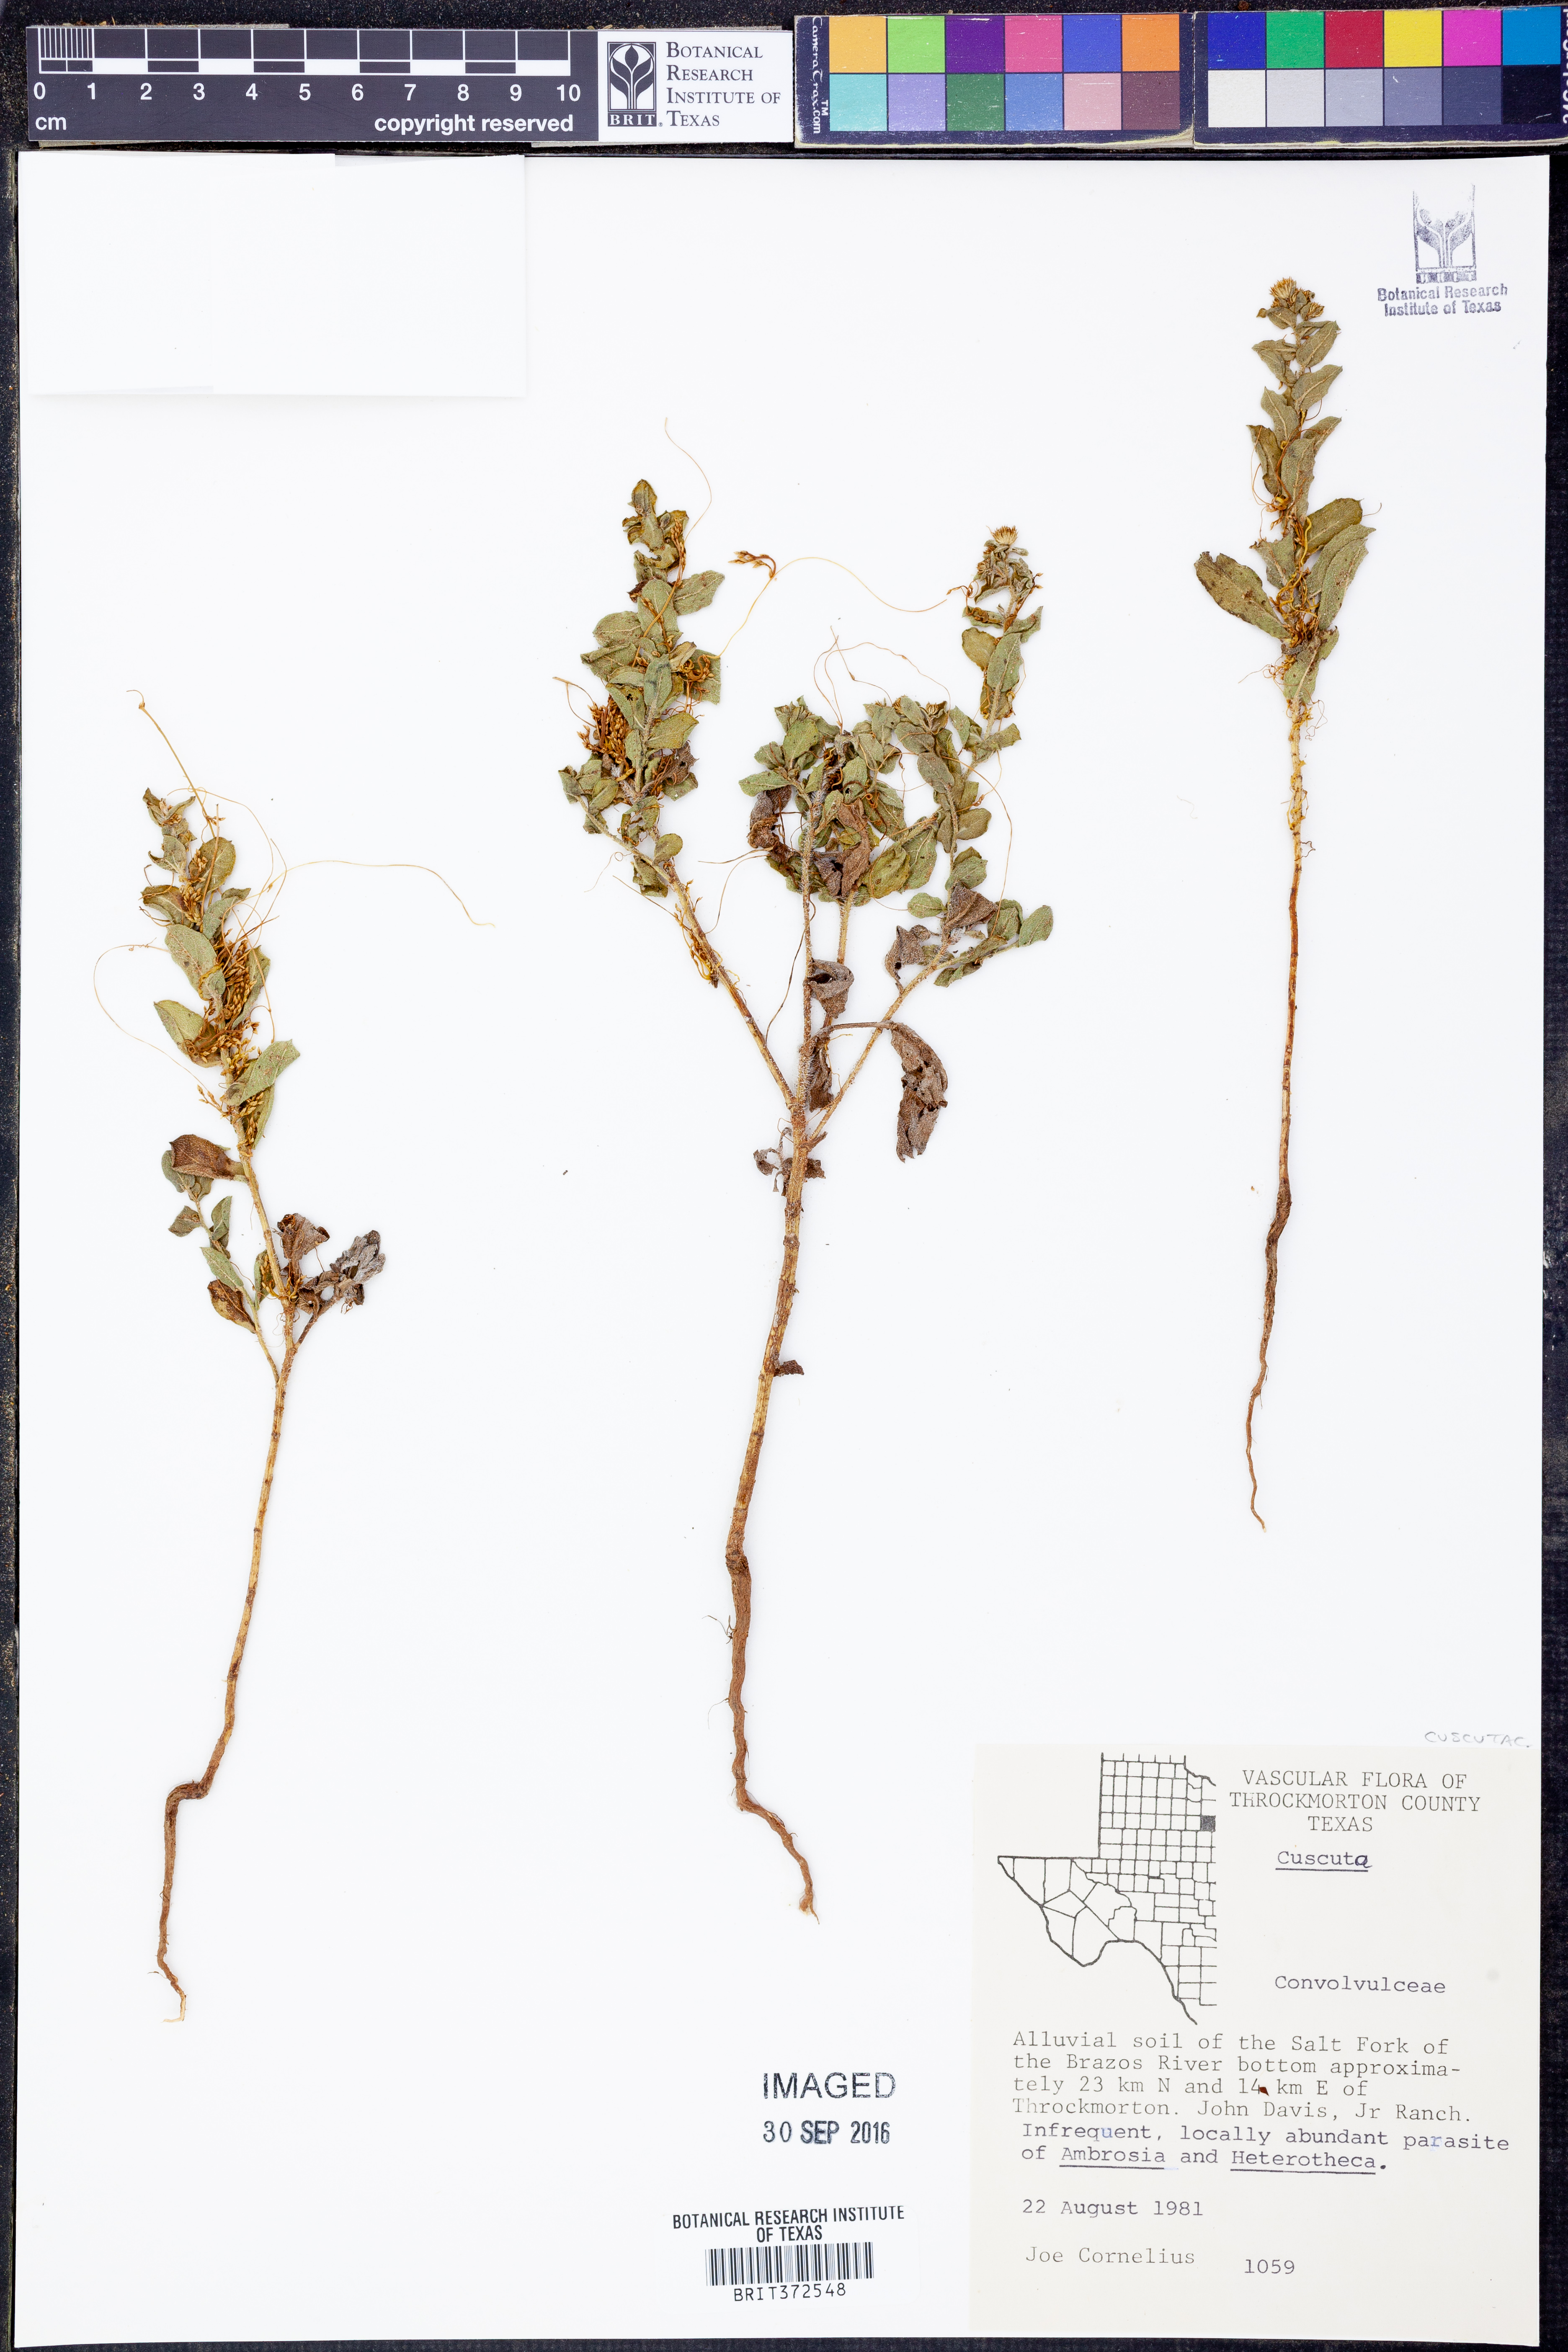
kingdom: Plantae
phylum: Tracheophyta
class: Magnoliopsida
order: Solanales
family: Convolvulaceae
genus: Cuscuta
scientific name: Cuscuta
